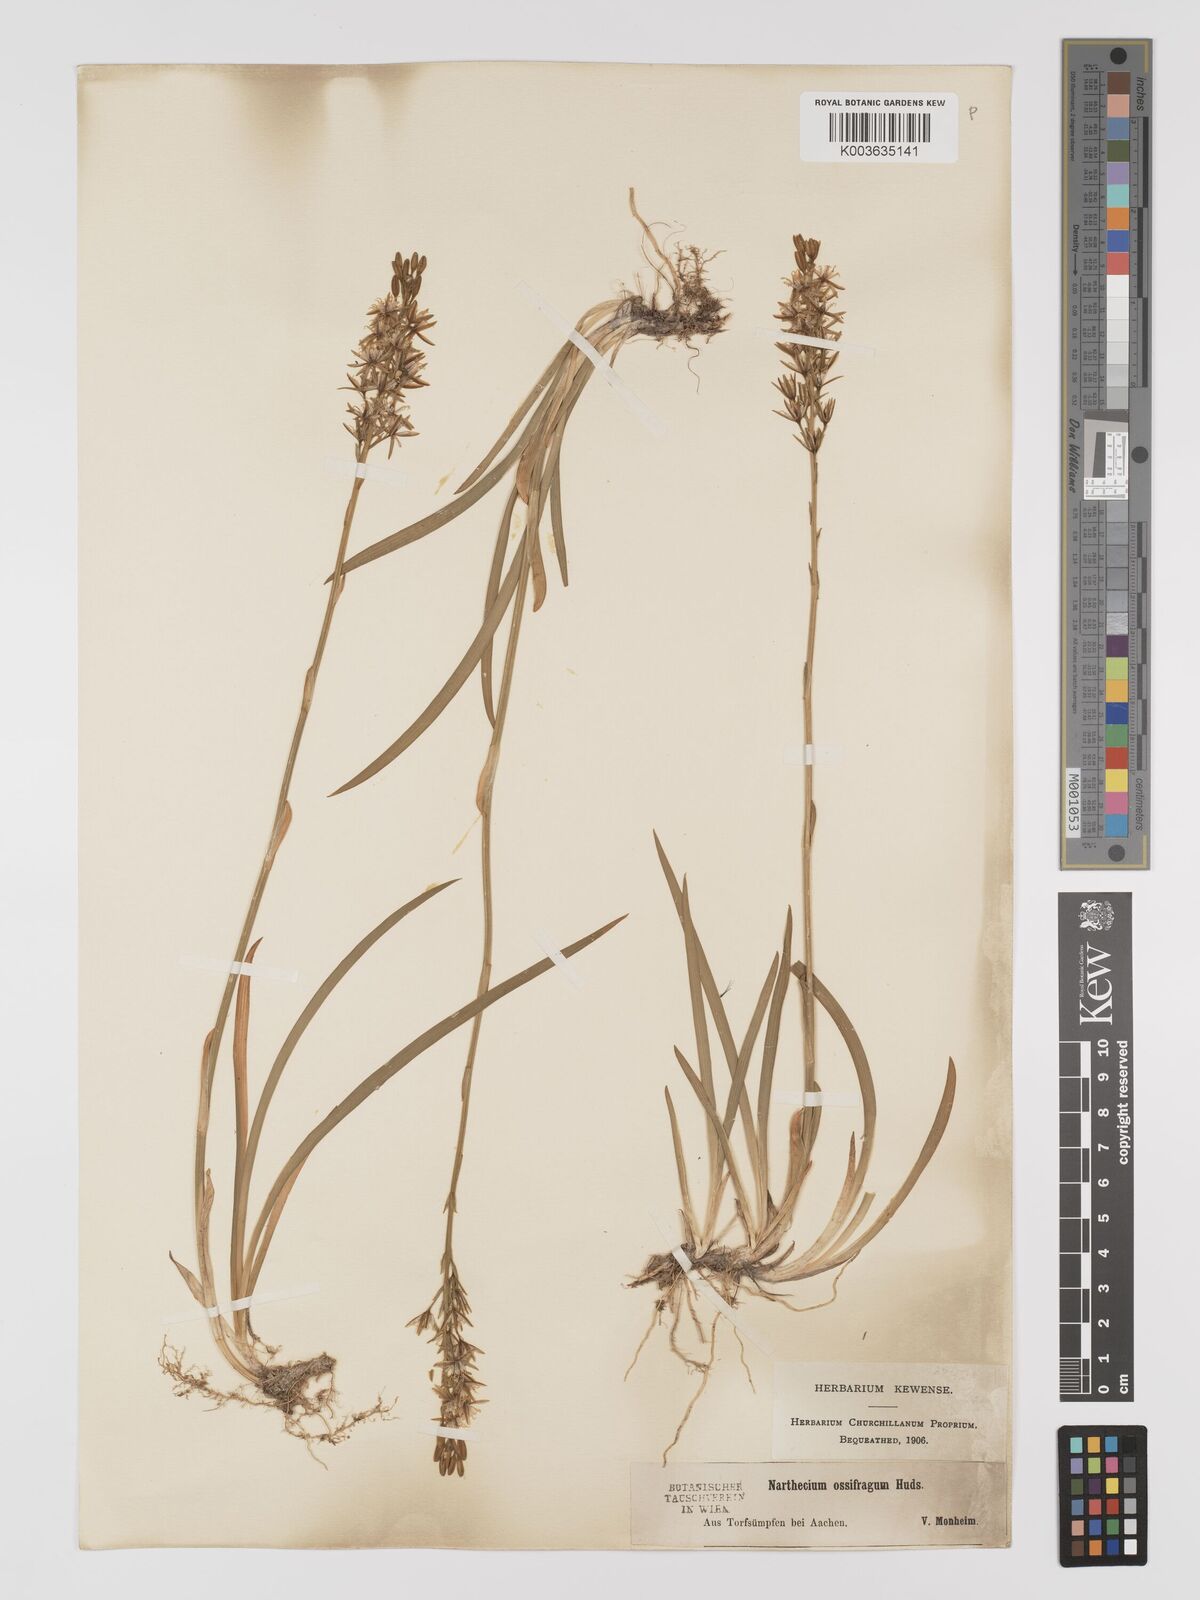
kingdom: Plantae
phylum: Tracheophyta
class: Liliopsida
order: Dioscoreales
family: Nartheciaceae
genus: Narthecium
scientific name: Narthecium ossifragum
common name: Bog asphodel
